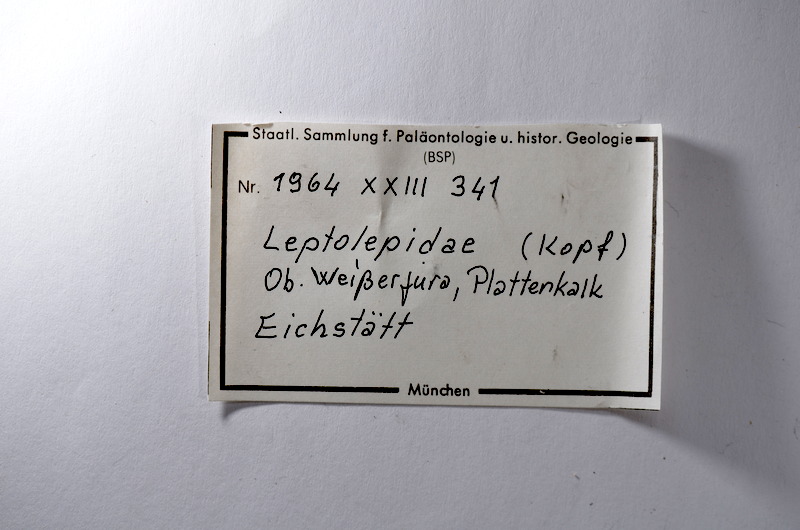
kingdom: Animalia
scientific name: Animalia
